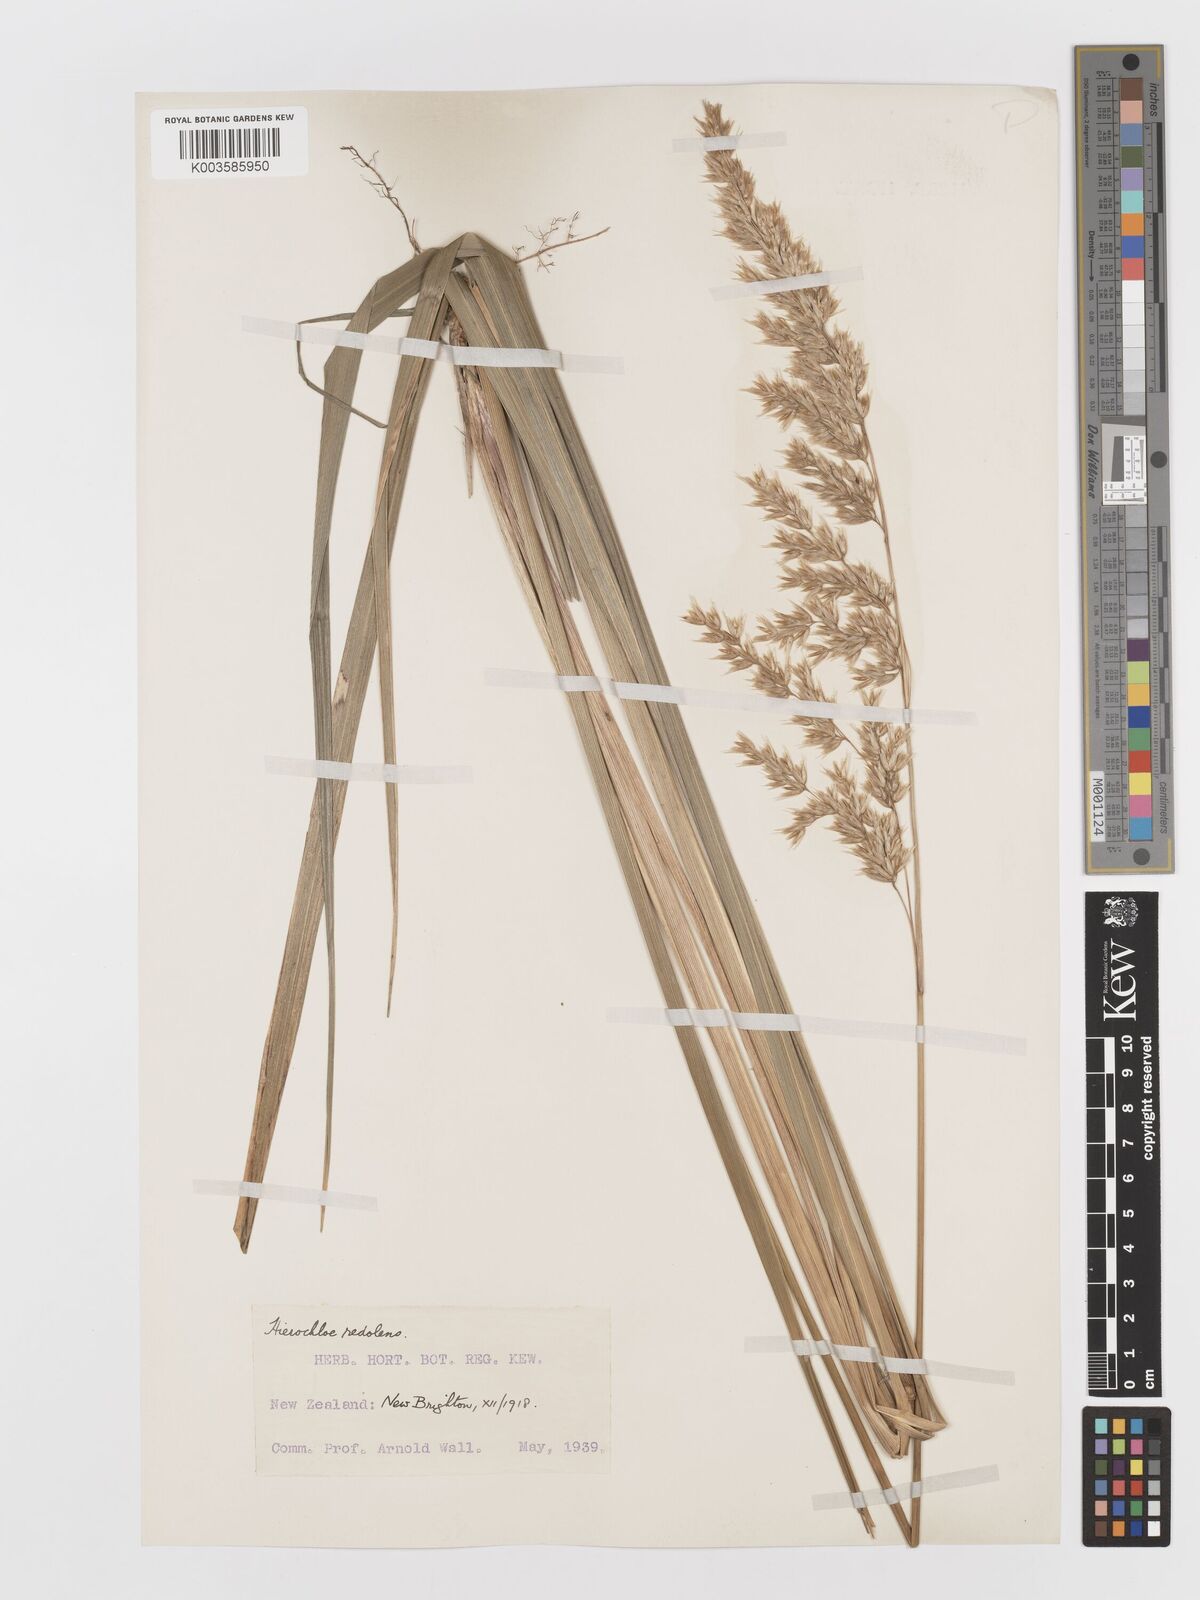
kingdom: Plantae
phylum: Tracheophyta
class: Liliopsida
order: Poales
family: Poaceae
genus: Anthoxanthum
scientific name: Anthoxanthum redolens
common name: Sweet holy grass
